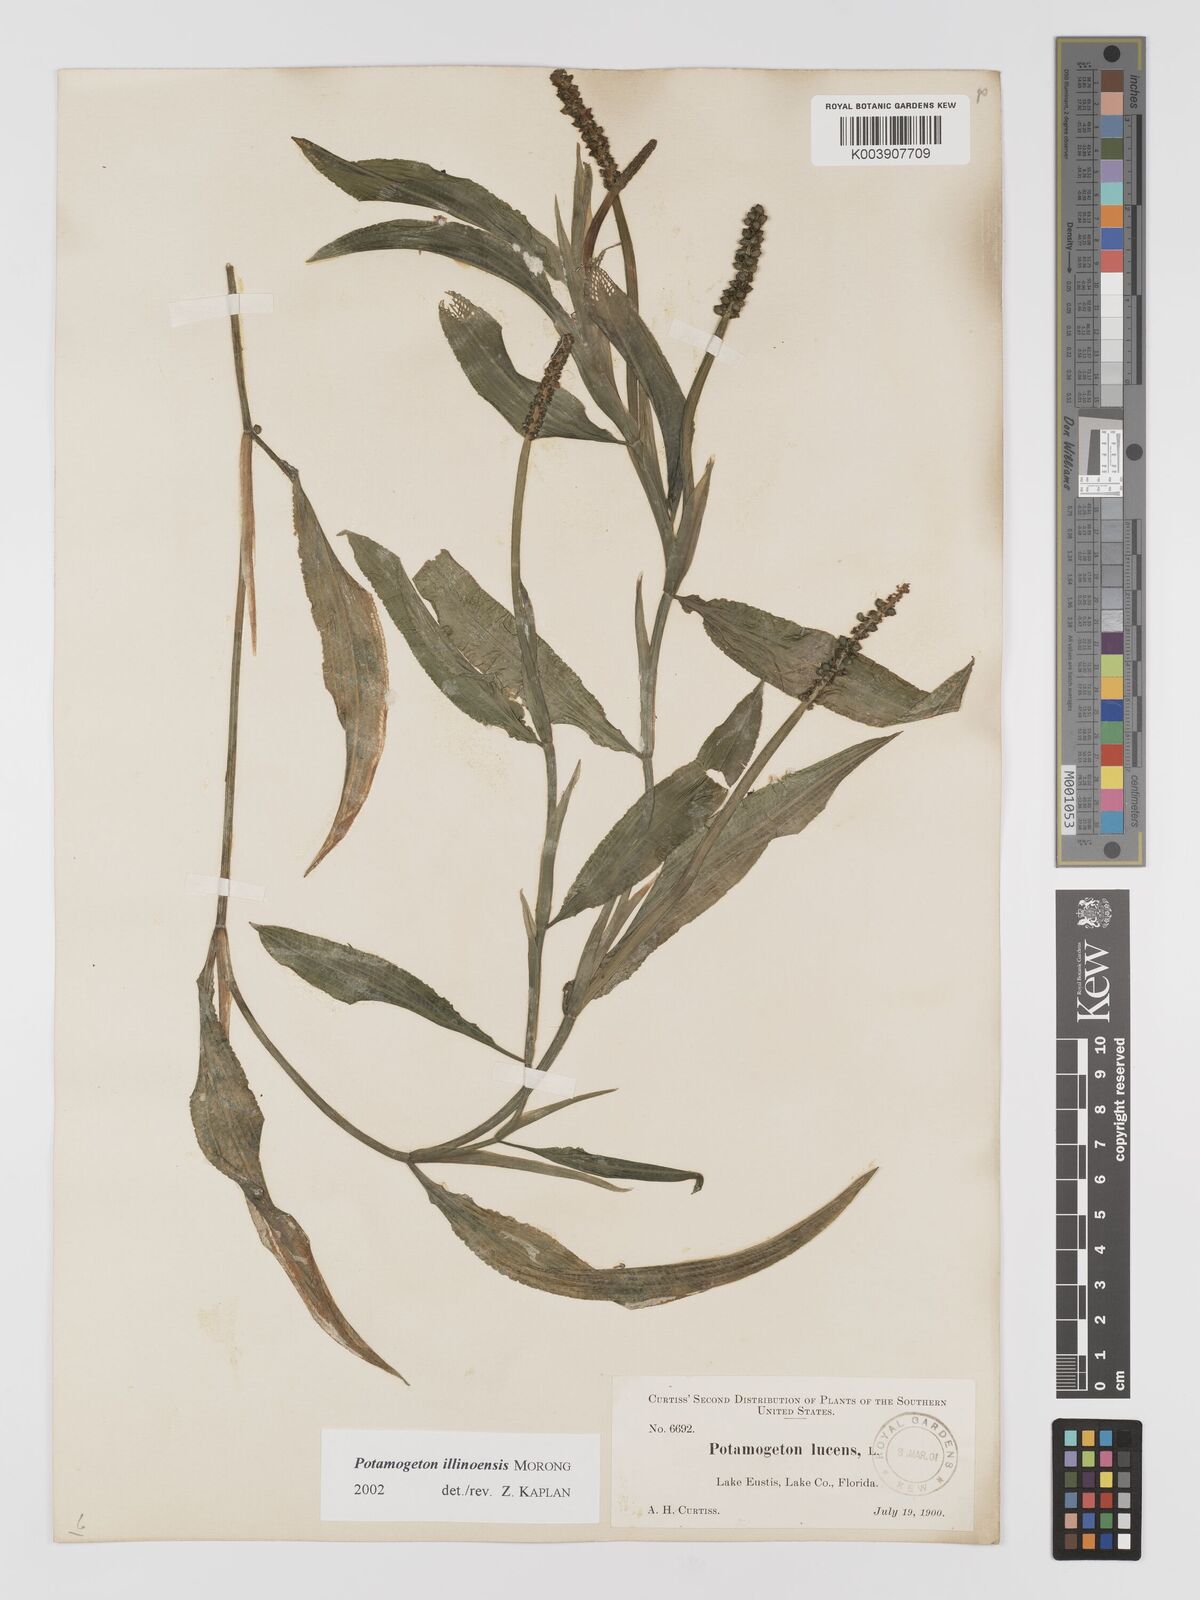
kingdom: Plantae
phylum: Tracheophyta
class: Liliopsida
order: Alismatales
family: Potamogetonaceae
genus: Potamogeton
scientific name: Potamogeton illinoensis
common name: Illinois pondweed
